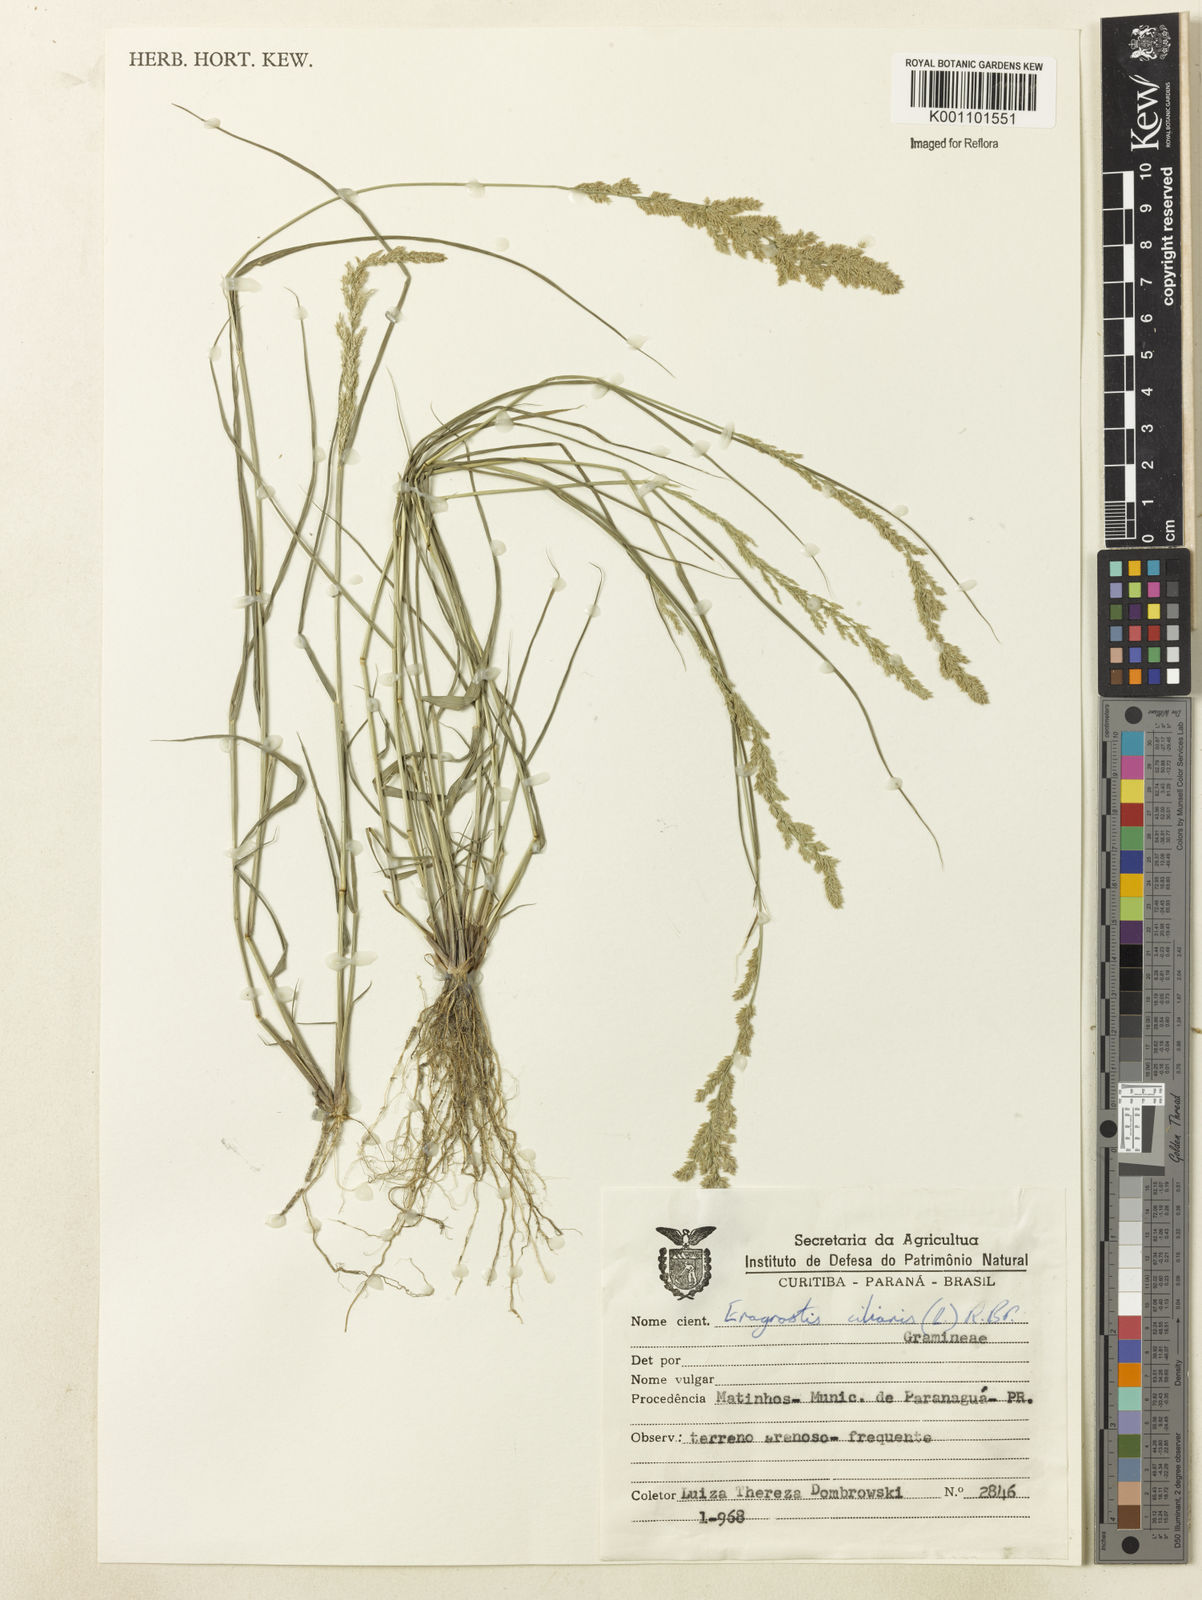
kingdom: Plantae
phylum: Tracheophyta
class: Liliopsida
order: Poales
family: Poaceae
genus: Eragrostis
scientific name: Eragrostis ciliaris
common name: Gophertail lovegrass
